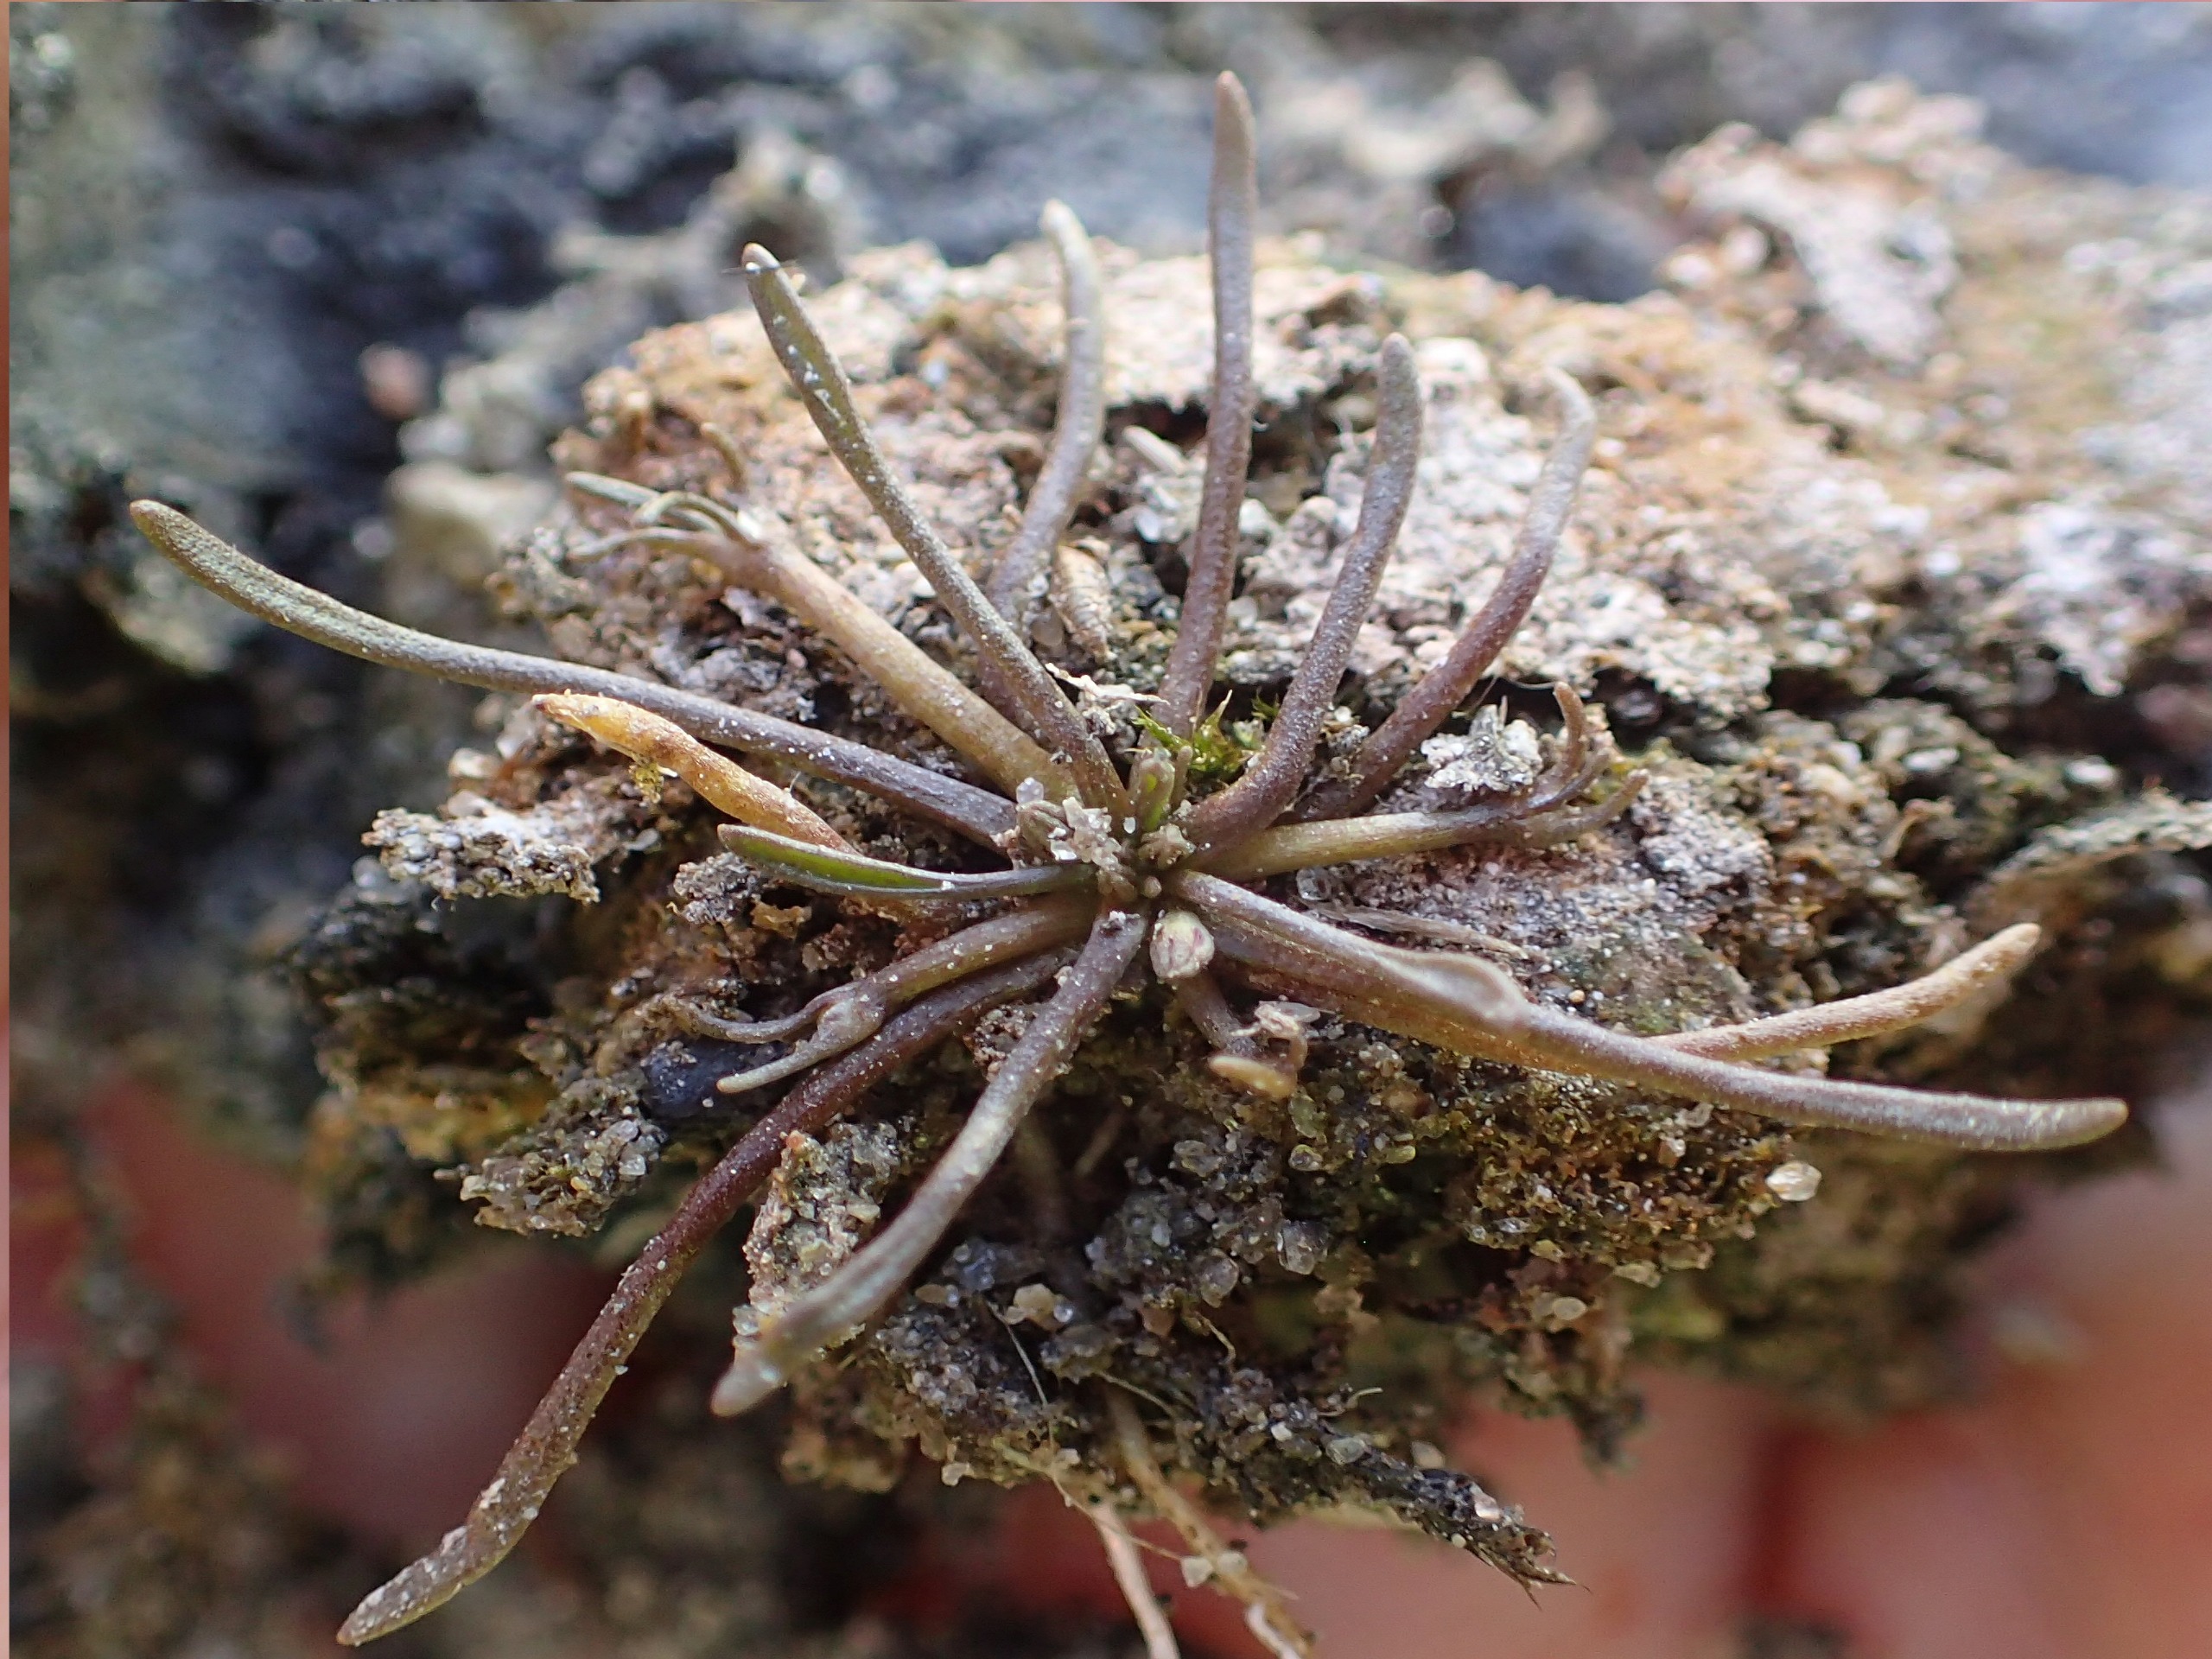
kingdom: Plantae
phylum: Tracheophyta
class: Magnoliopsida
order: Lamiales
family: Scrophulariaceae
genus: Limosella
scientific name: Limosella aquatica
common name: Dyndurt
